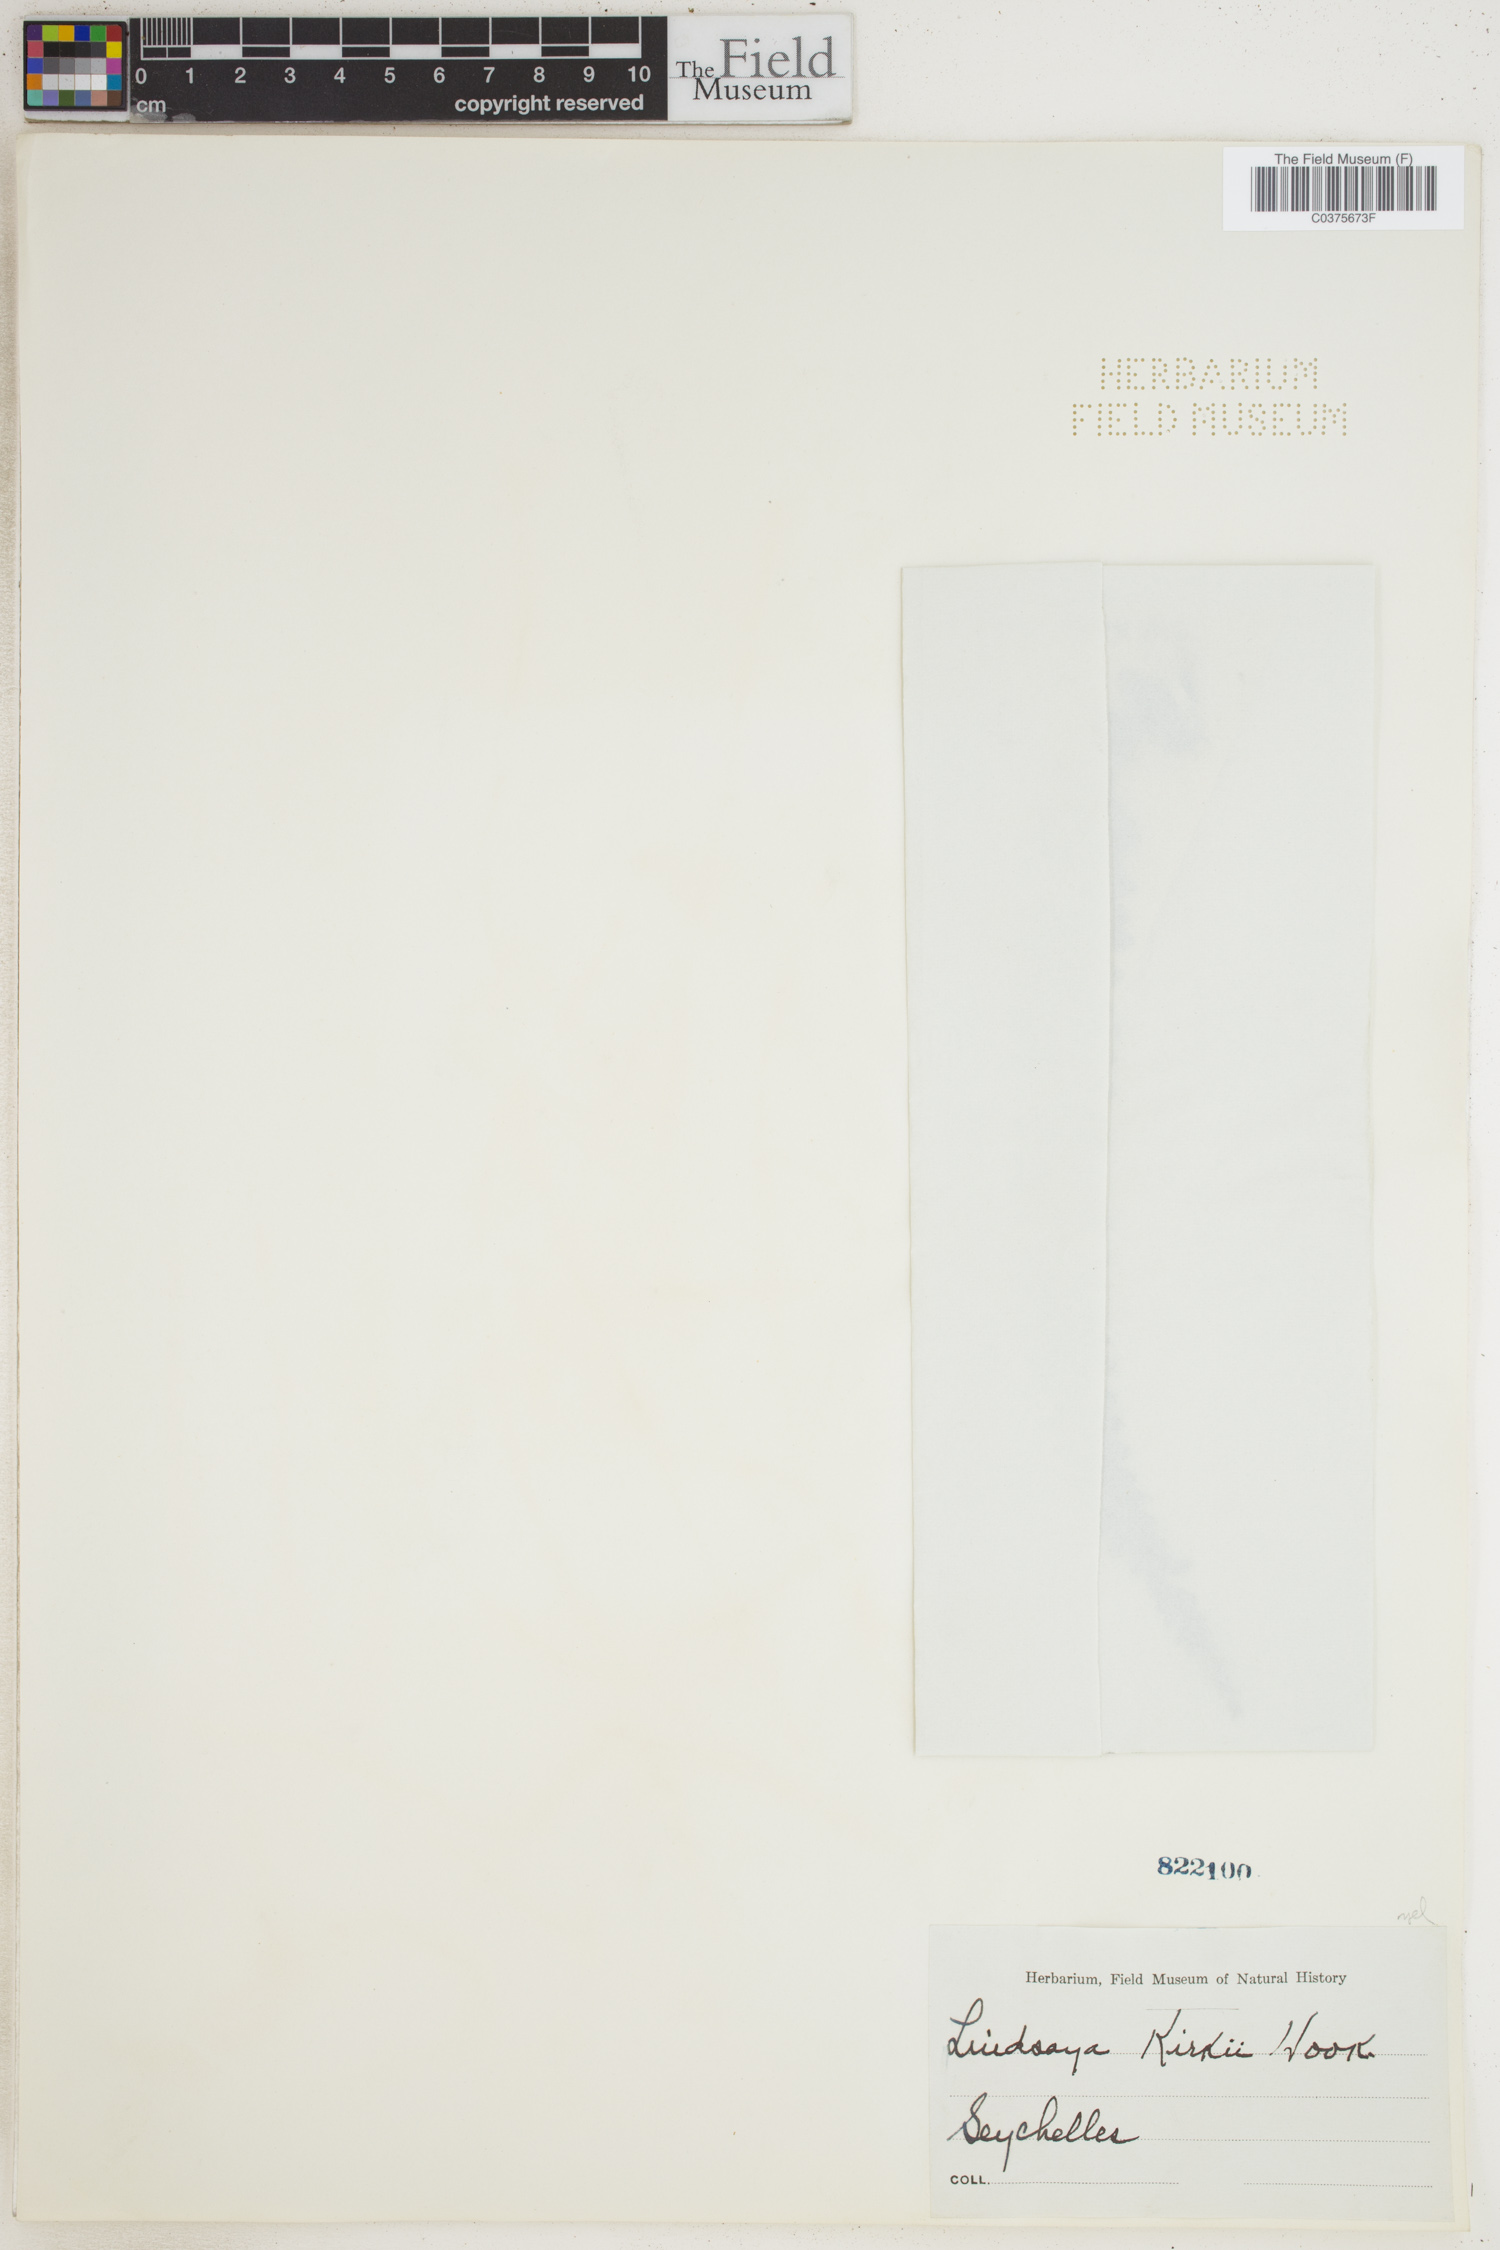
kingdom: Plantae
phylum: Tracheophyta
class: Polypodiopsida
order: Polypodiales
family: Lindsaeaceae
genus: Nesolindsaea
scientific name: Nesolindsaea kirkii
